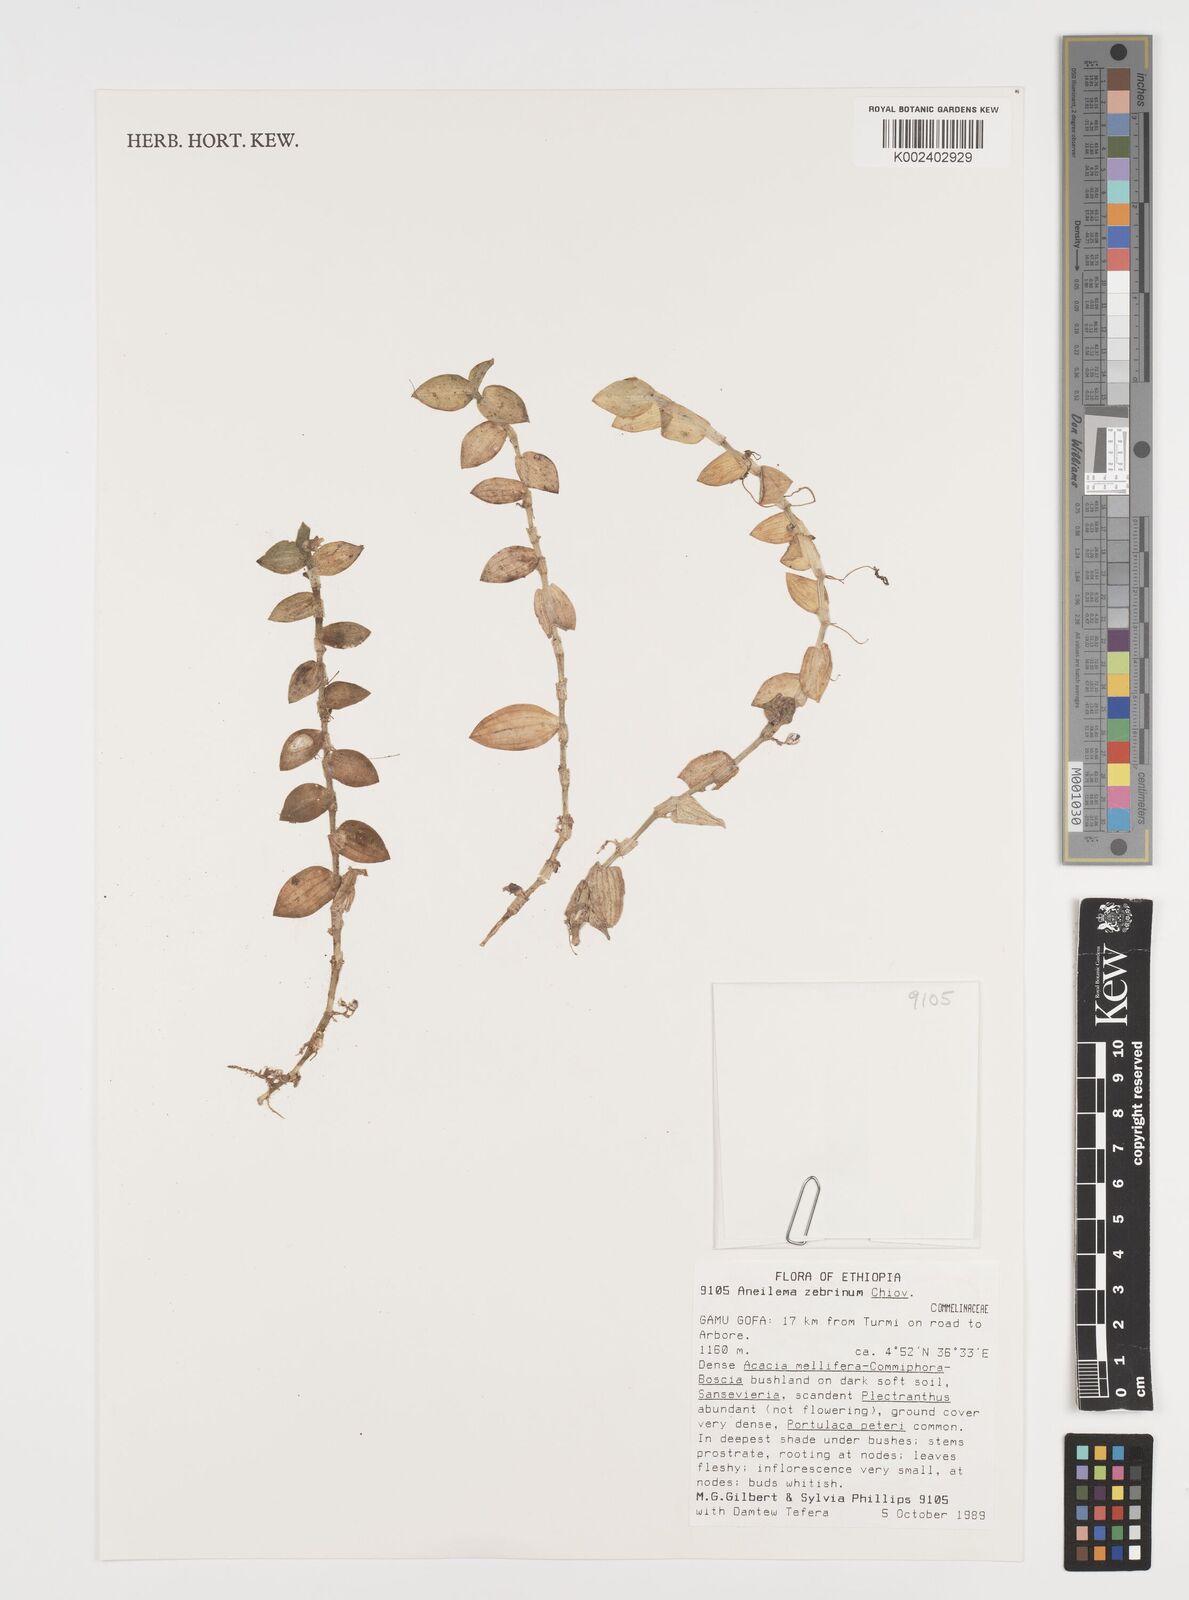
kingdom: Plantae
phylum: Tracheophyta
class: Liliopsida
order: Commelinales
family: Commelinaceae
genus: Aneilema
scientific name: Aneilema zebrinum
